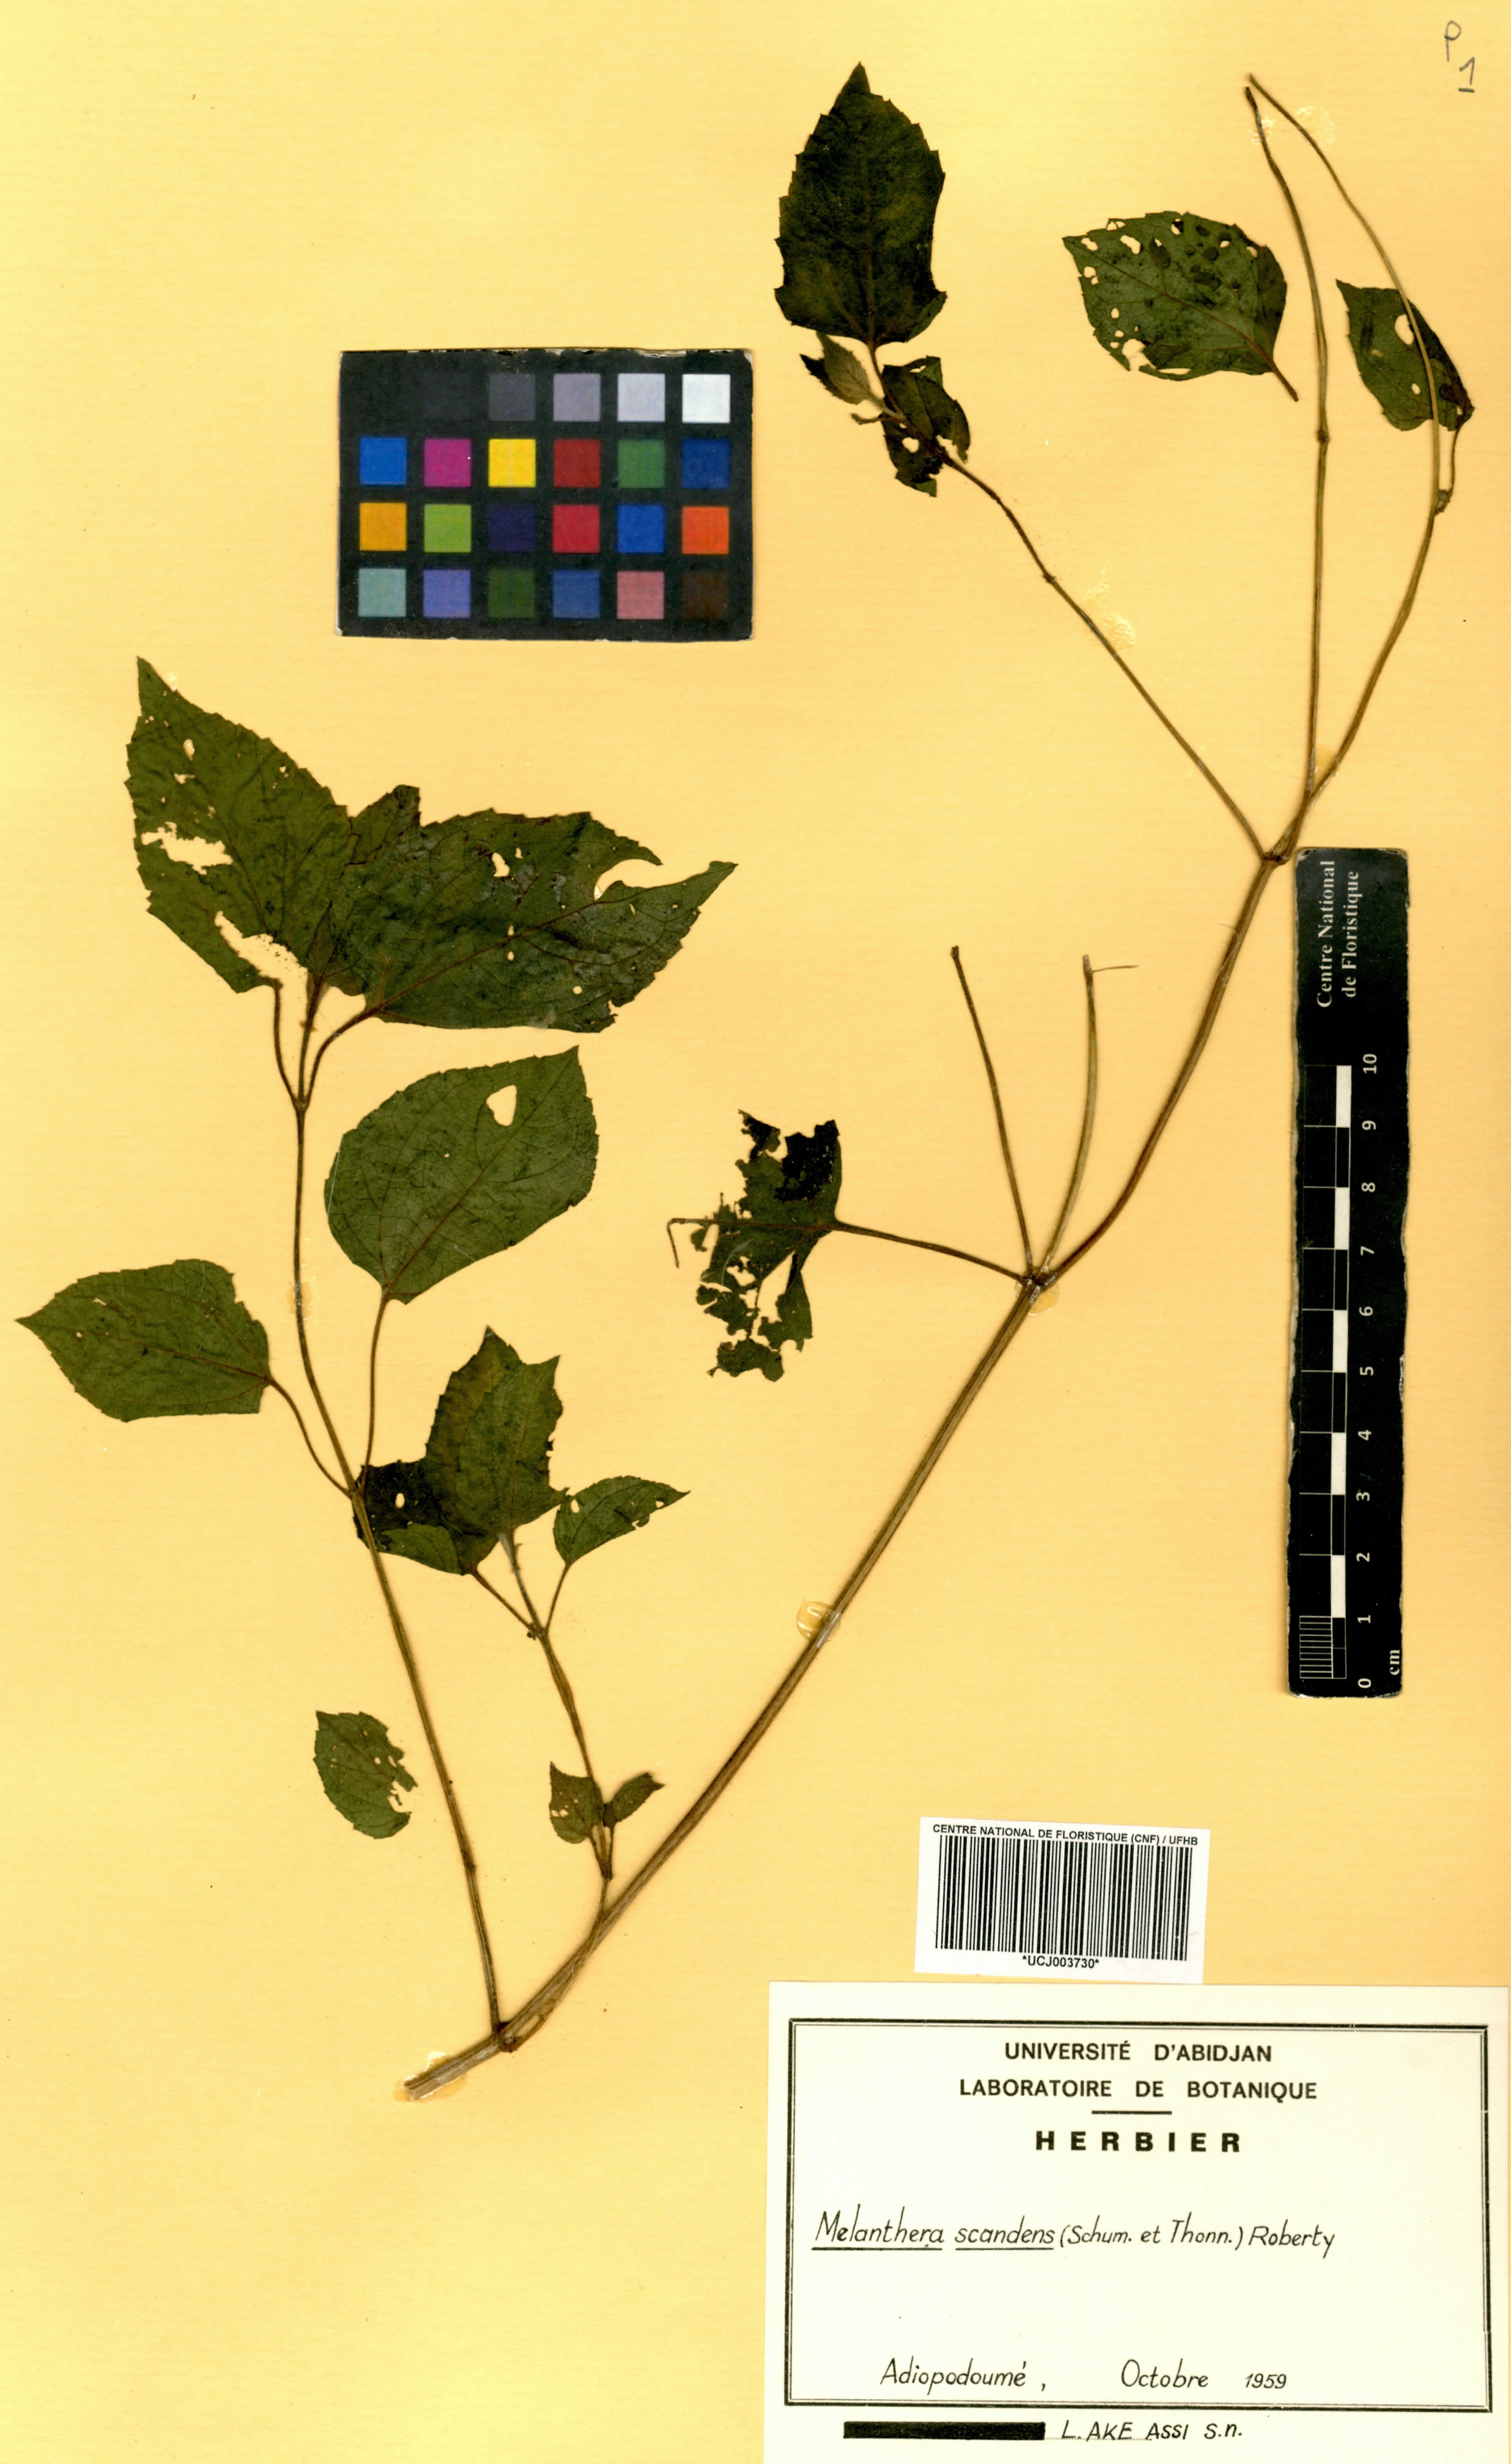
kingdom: Plantae
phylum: Tracheophyta
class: Magnoliopsida
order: Asterales
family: Asteraceae
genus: Melanthera
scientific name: Melanthera scandens
